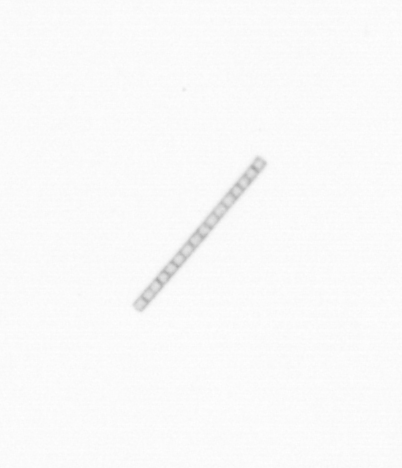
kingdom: Chromista
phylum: Ochrophyta
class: Bacillariophyceae
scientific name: Bacillariophyceae
